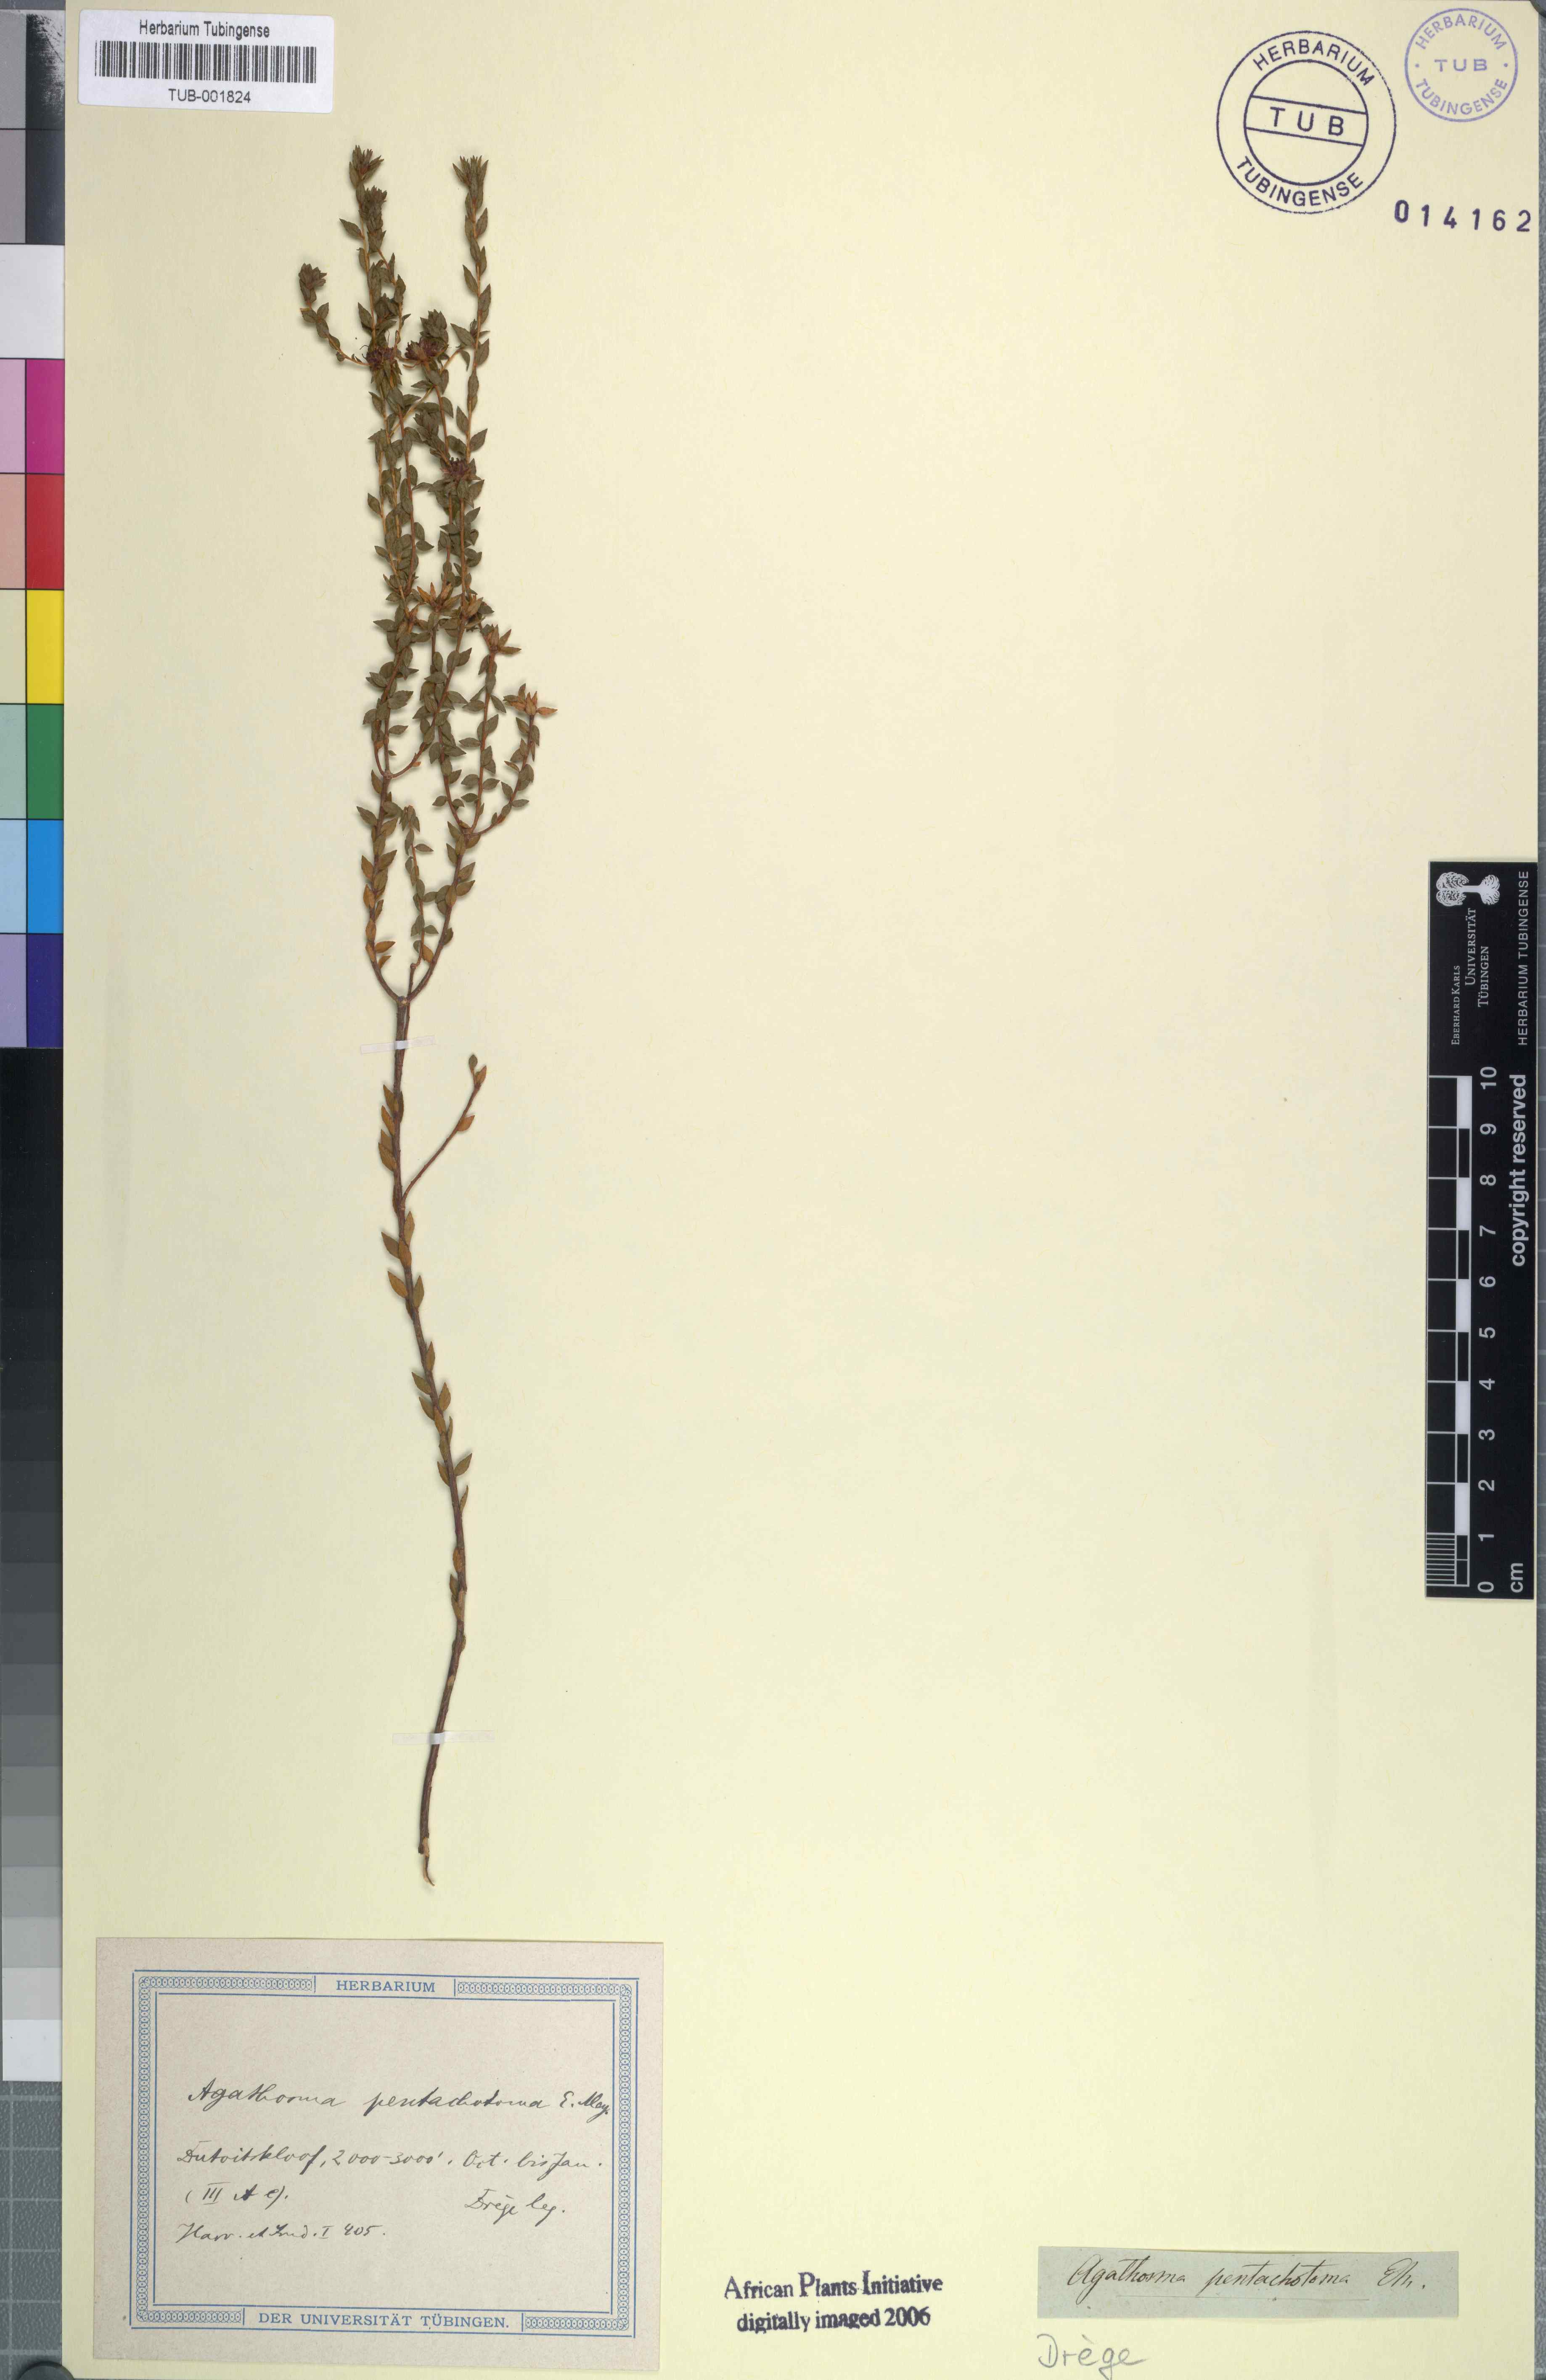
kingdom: Plantae
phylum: Tracheophyta
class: Magnoliopsida
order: Sapindales
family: Rutaceae
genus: Agathosma
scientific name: Agathosma pentachotoma
